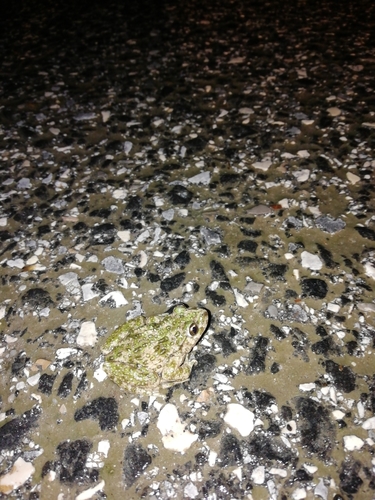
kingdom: Animalia
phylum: Chordata
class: Amphibia
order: Anura
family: Pelodytidae
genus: Pelodytes
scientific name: Pelodytes atlanticus
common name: Lusitanian parsley frog
